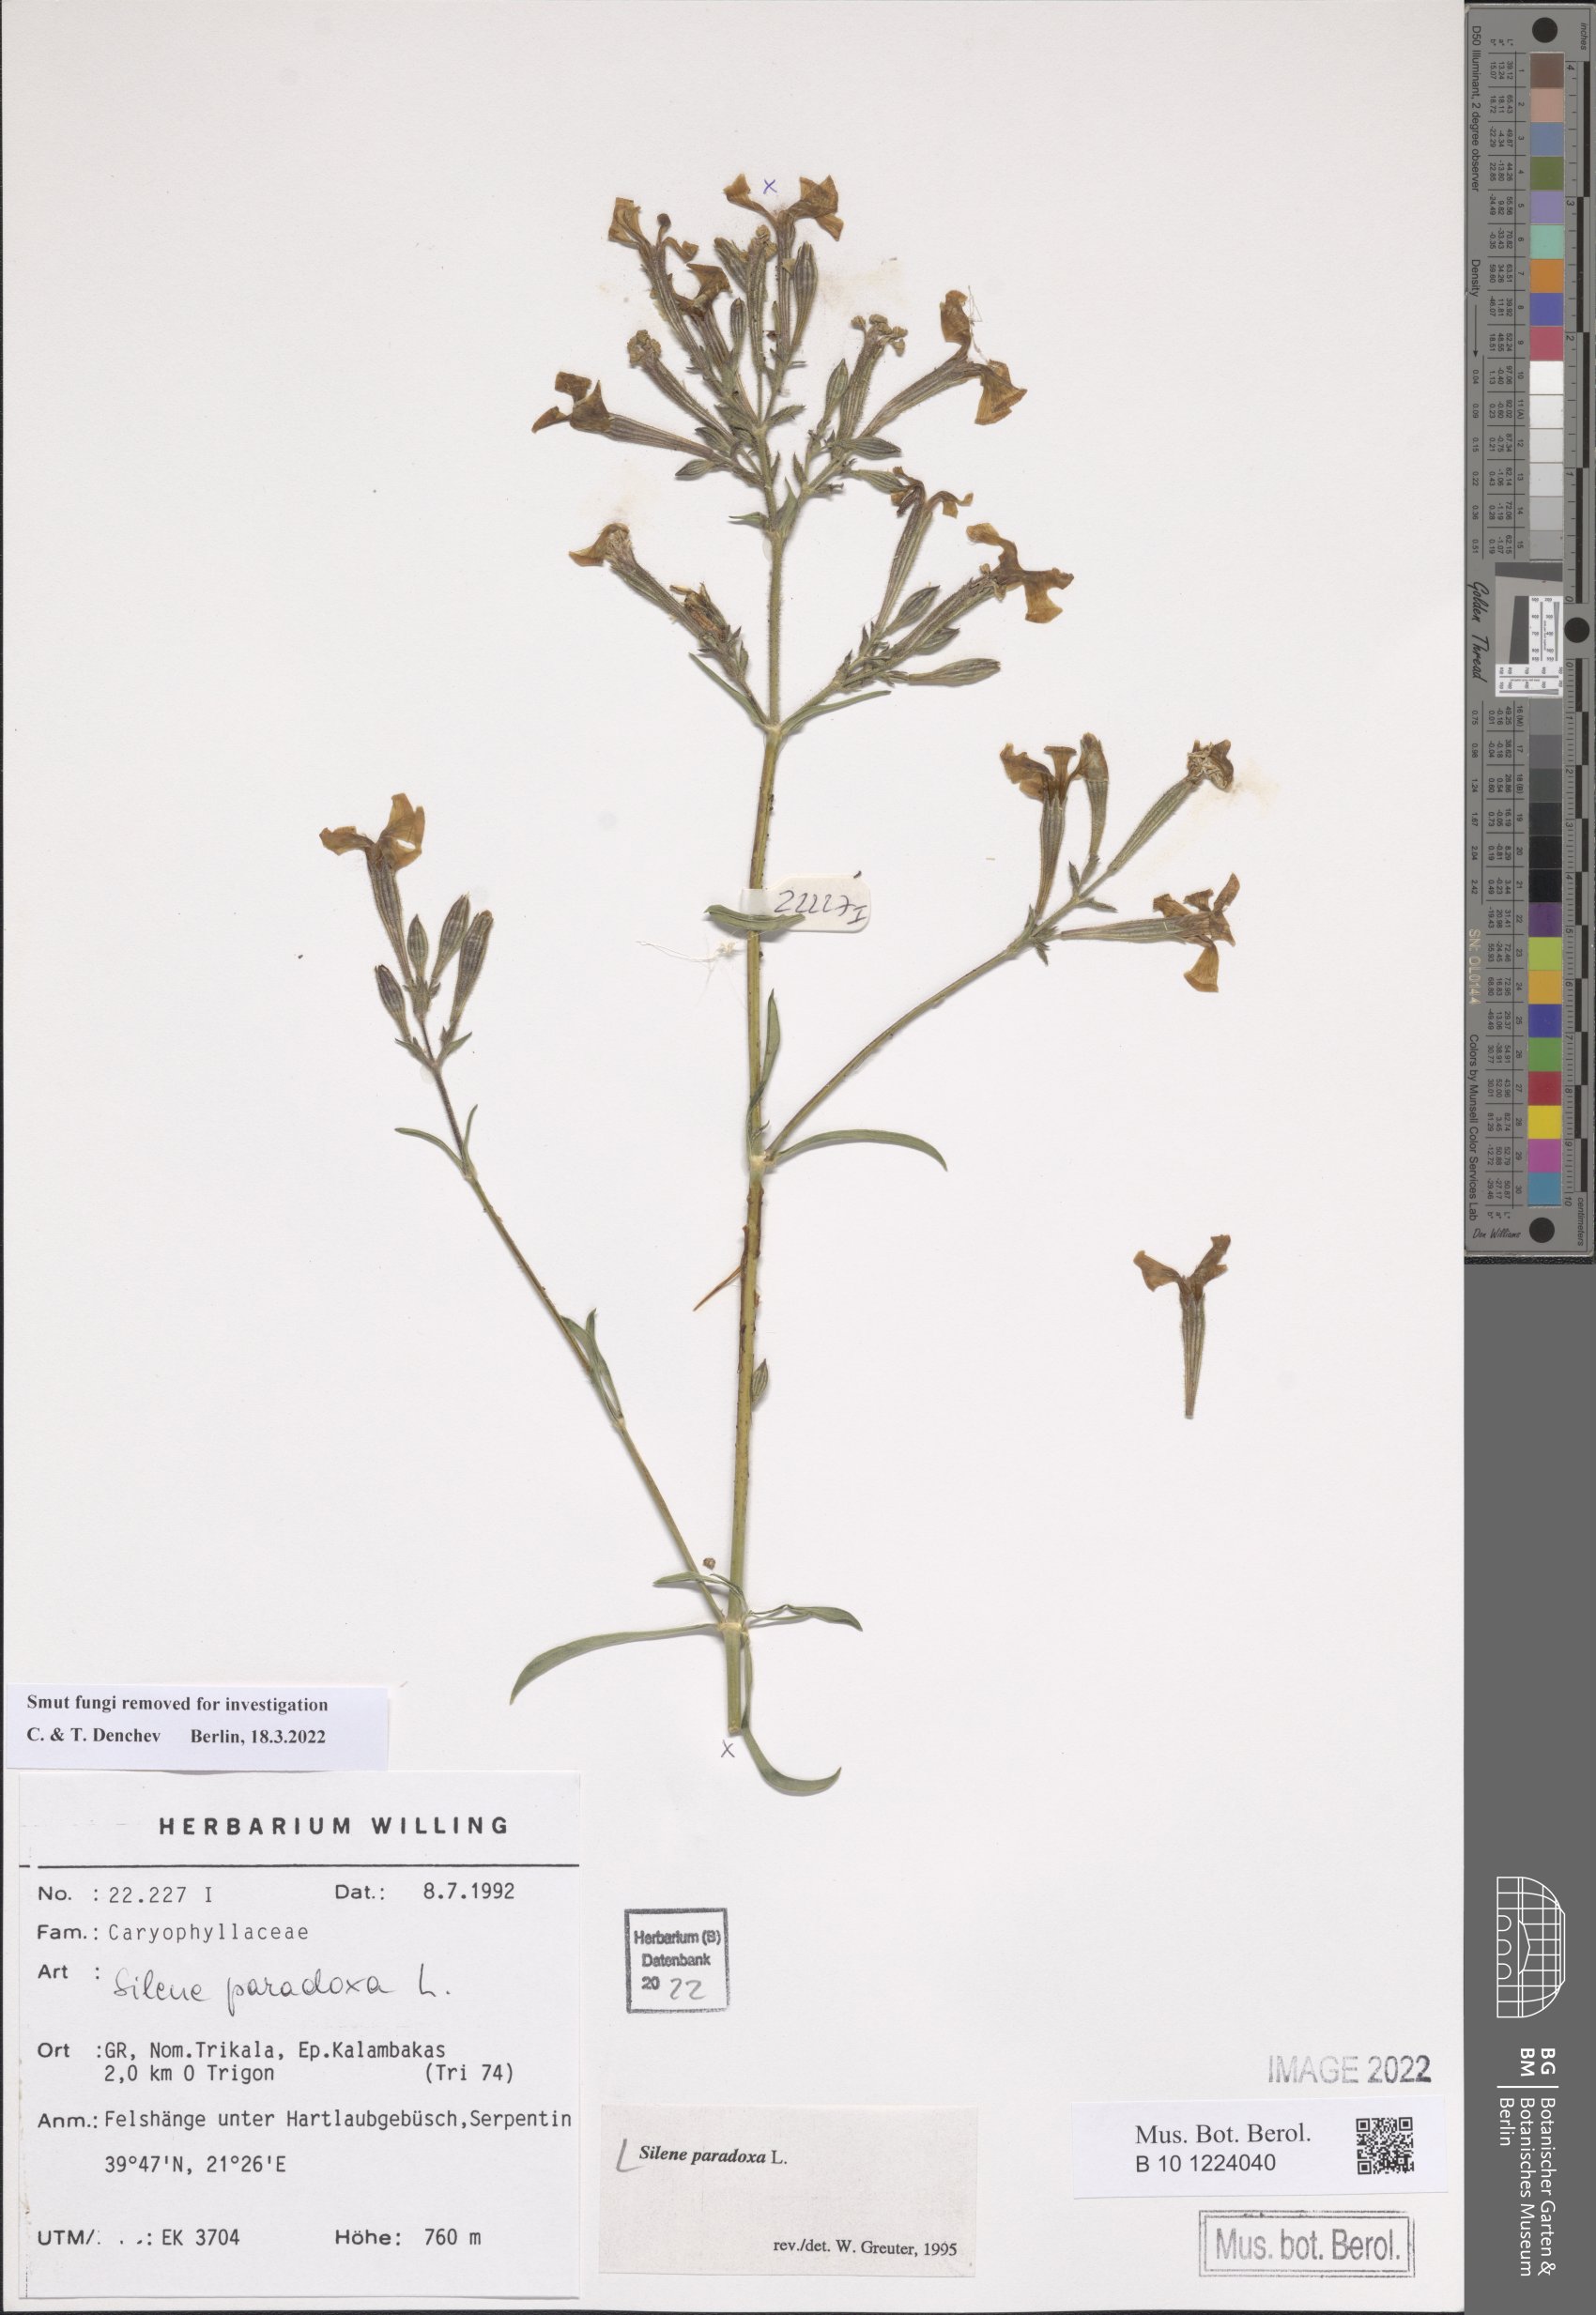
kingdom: Plantae
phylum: Tracheophyta
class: Magnoliopsida
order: Caryophyllales
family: Caryophyllaceae
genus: Silene
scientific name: Silene paradoxa
